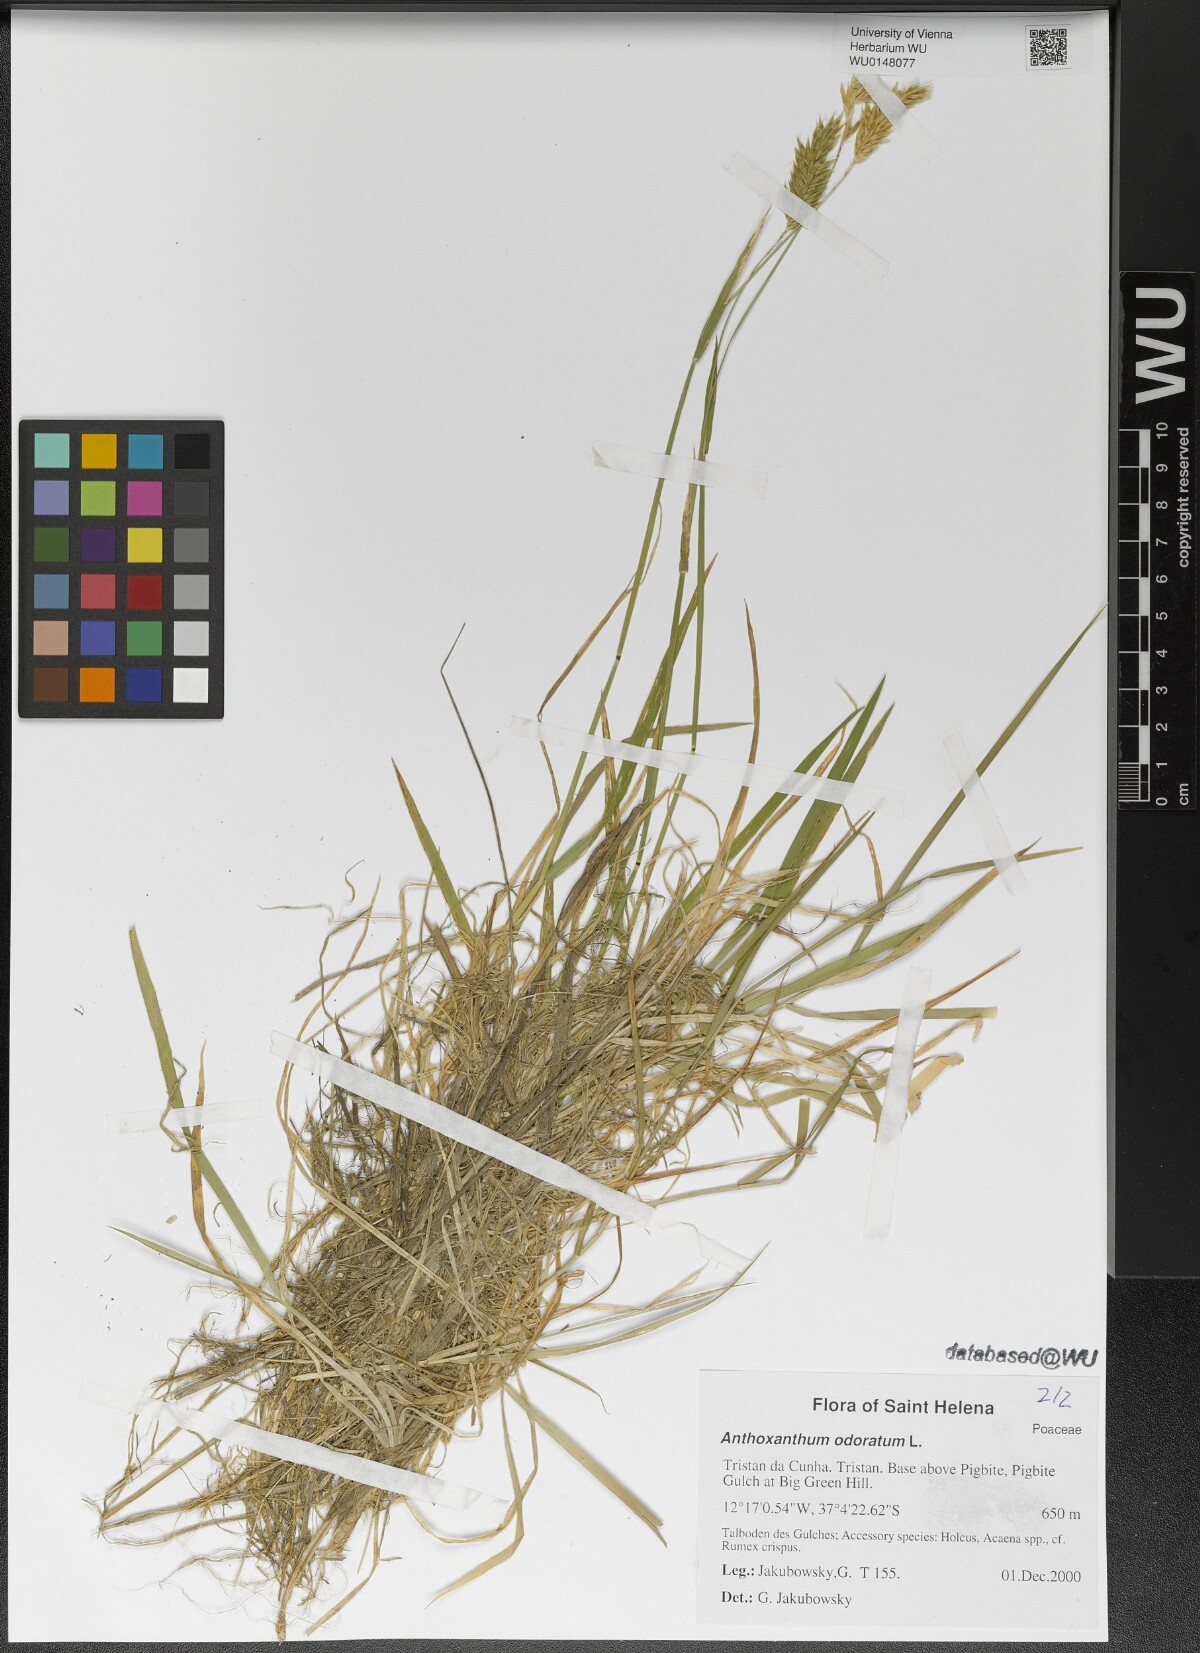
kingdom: Plantae
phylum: Tracheophyta
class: Liliopsida
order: Poales
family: Poaceae
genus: Anthoxanthum
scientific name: Anthoxanthum odoratum
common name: Sweet vernalgrass
